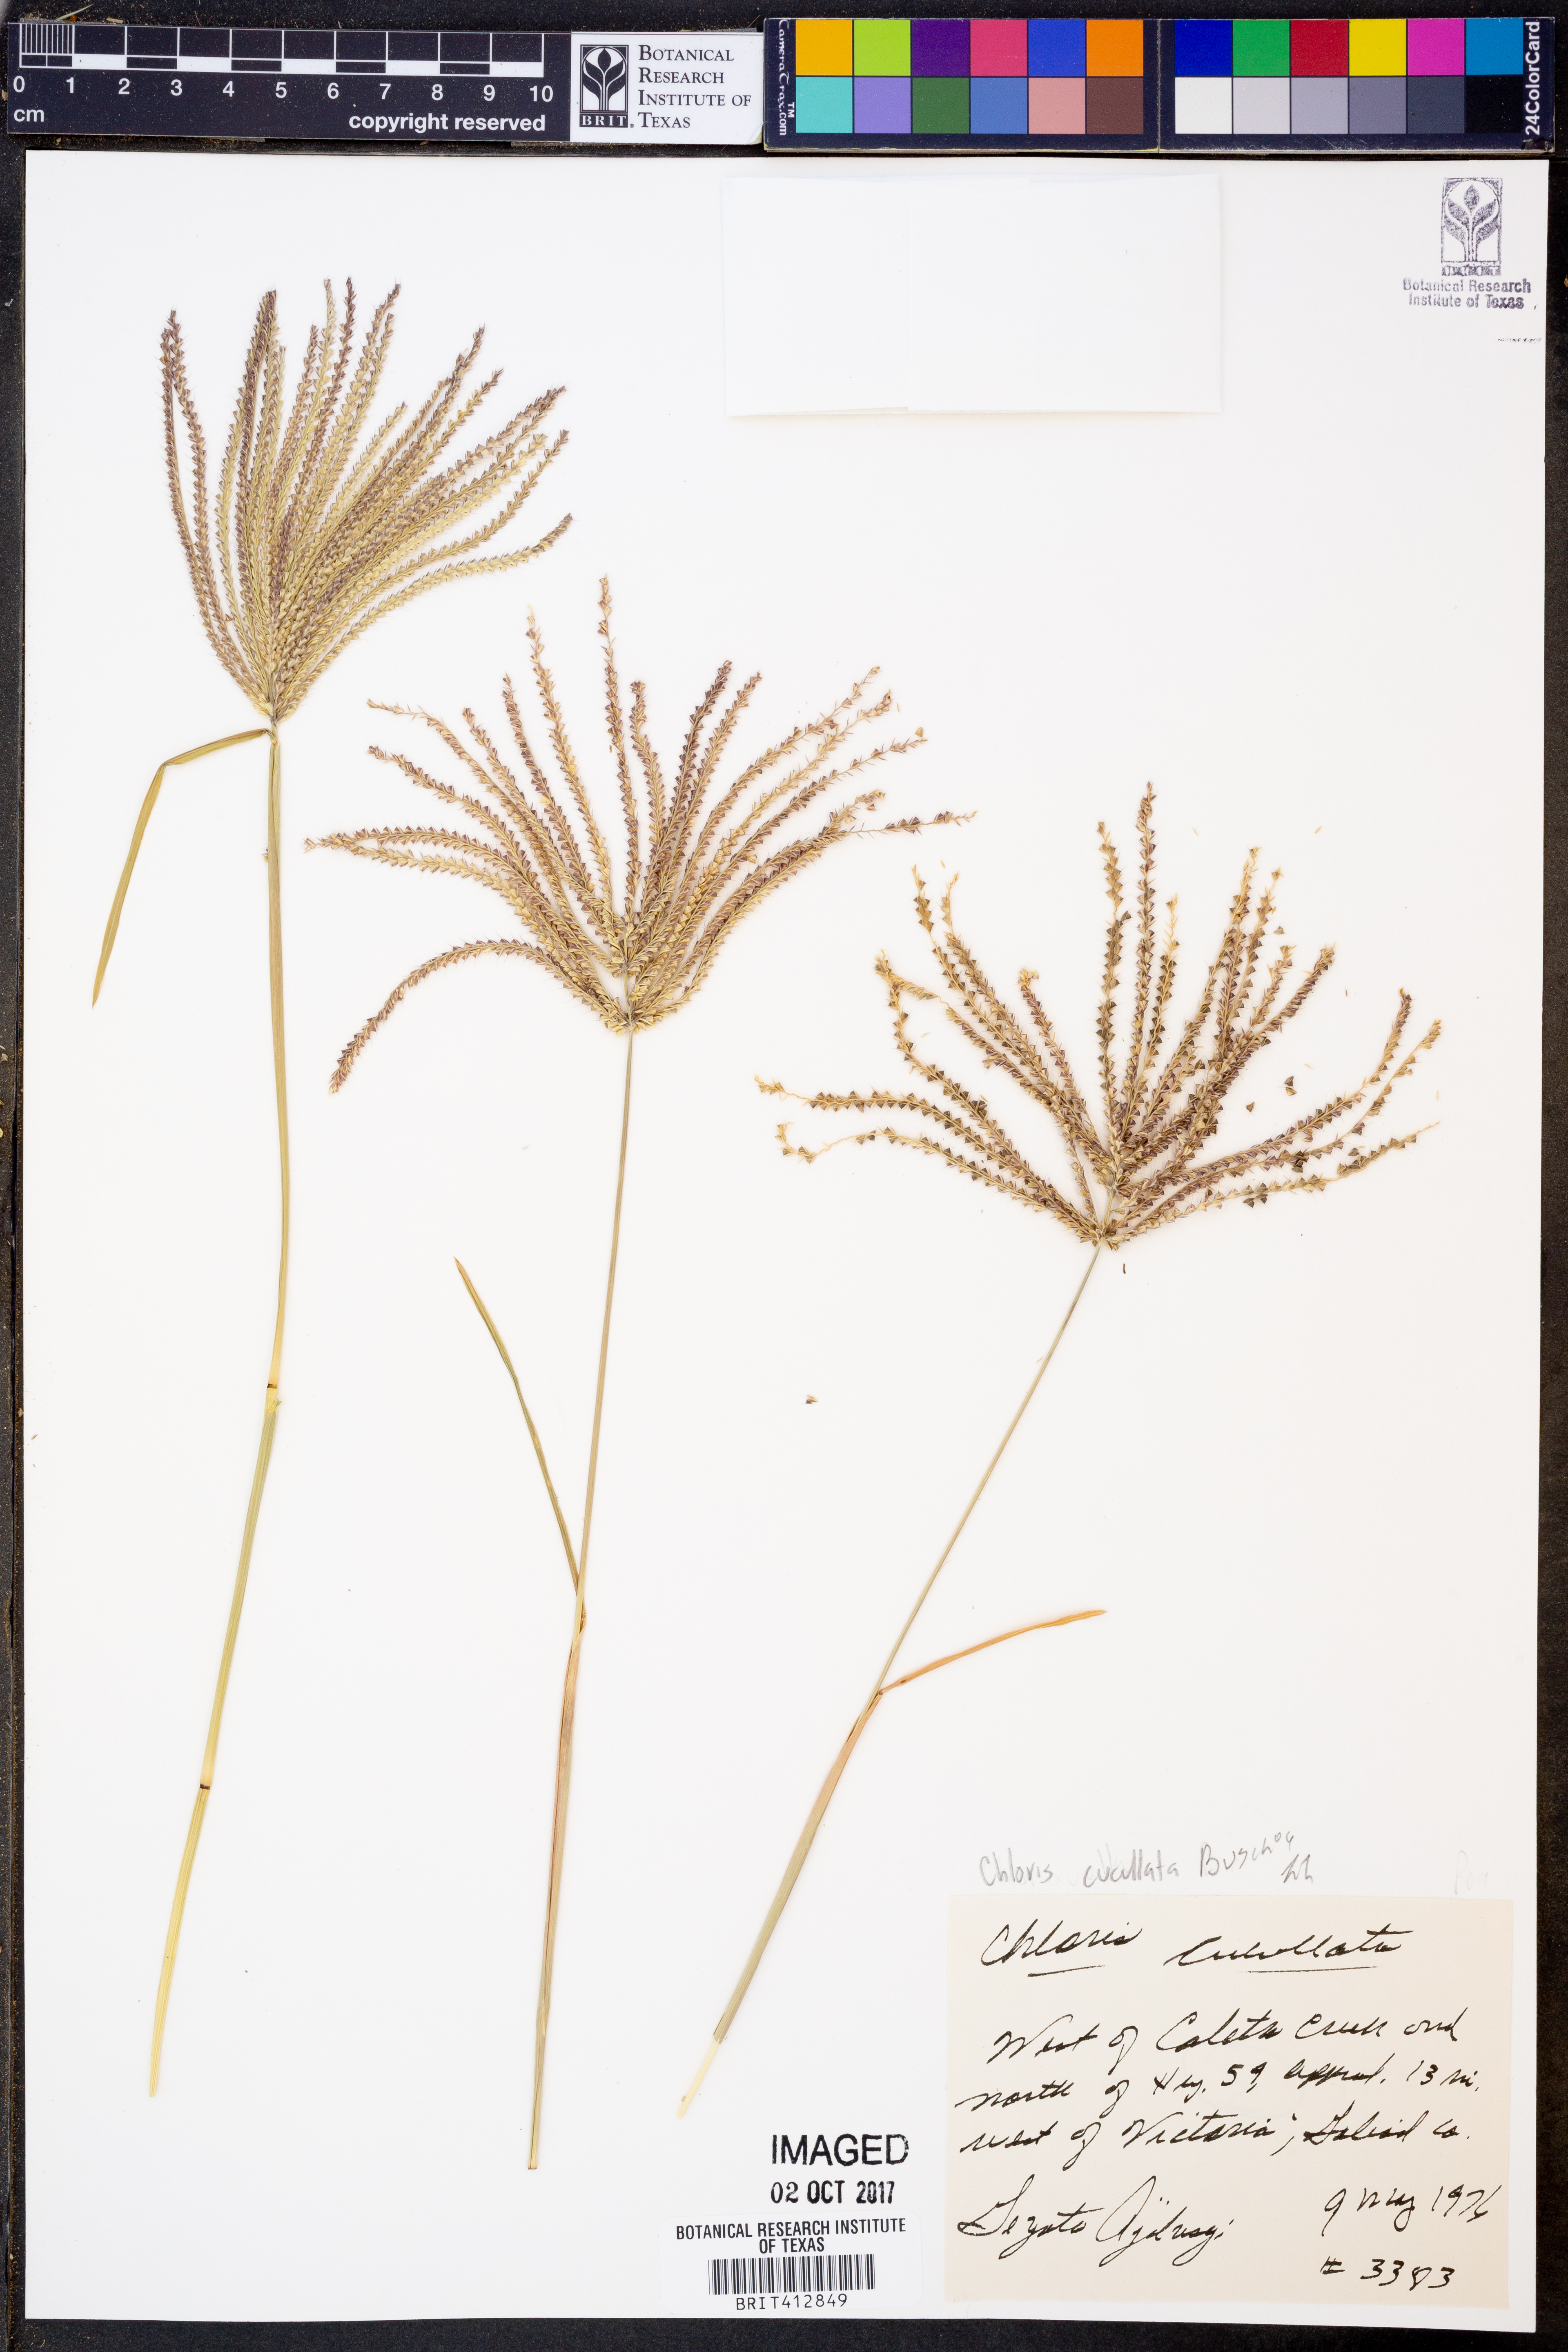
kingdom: Plantae
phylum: Tracheophyta
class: Liliopsida
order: Poales
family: Poaceae
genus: Chloris
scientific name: Chloris cucullata
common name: Hooded windmill grass
